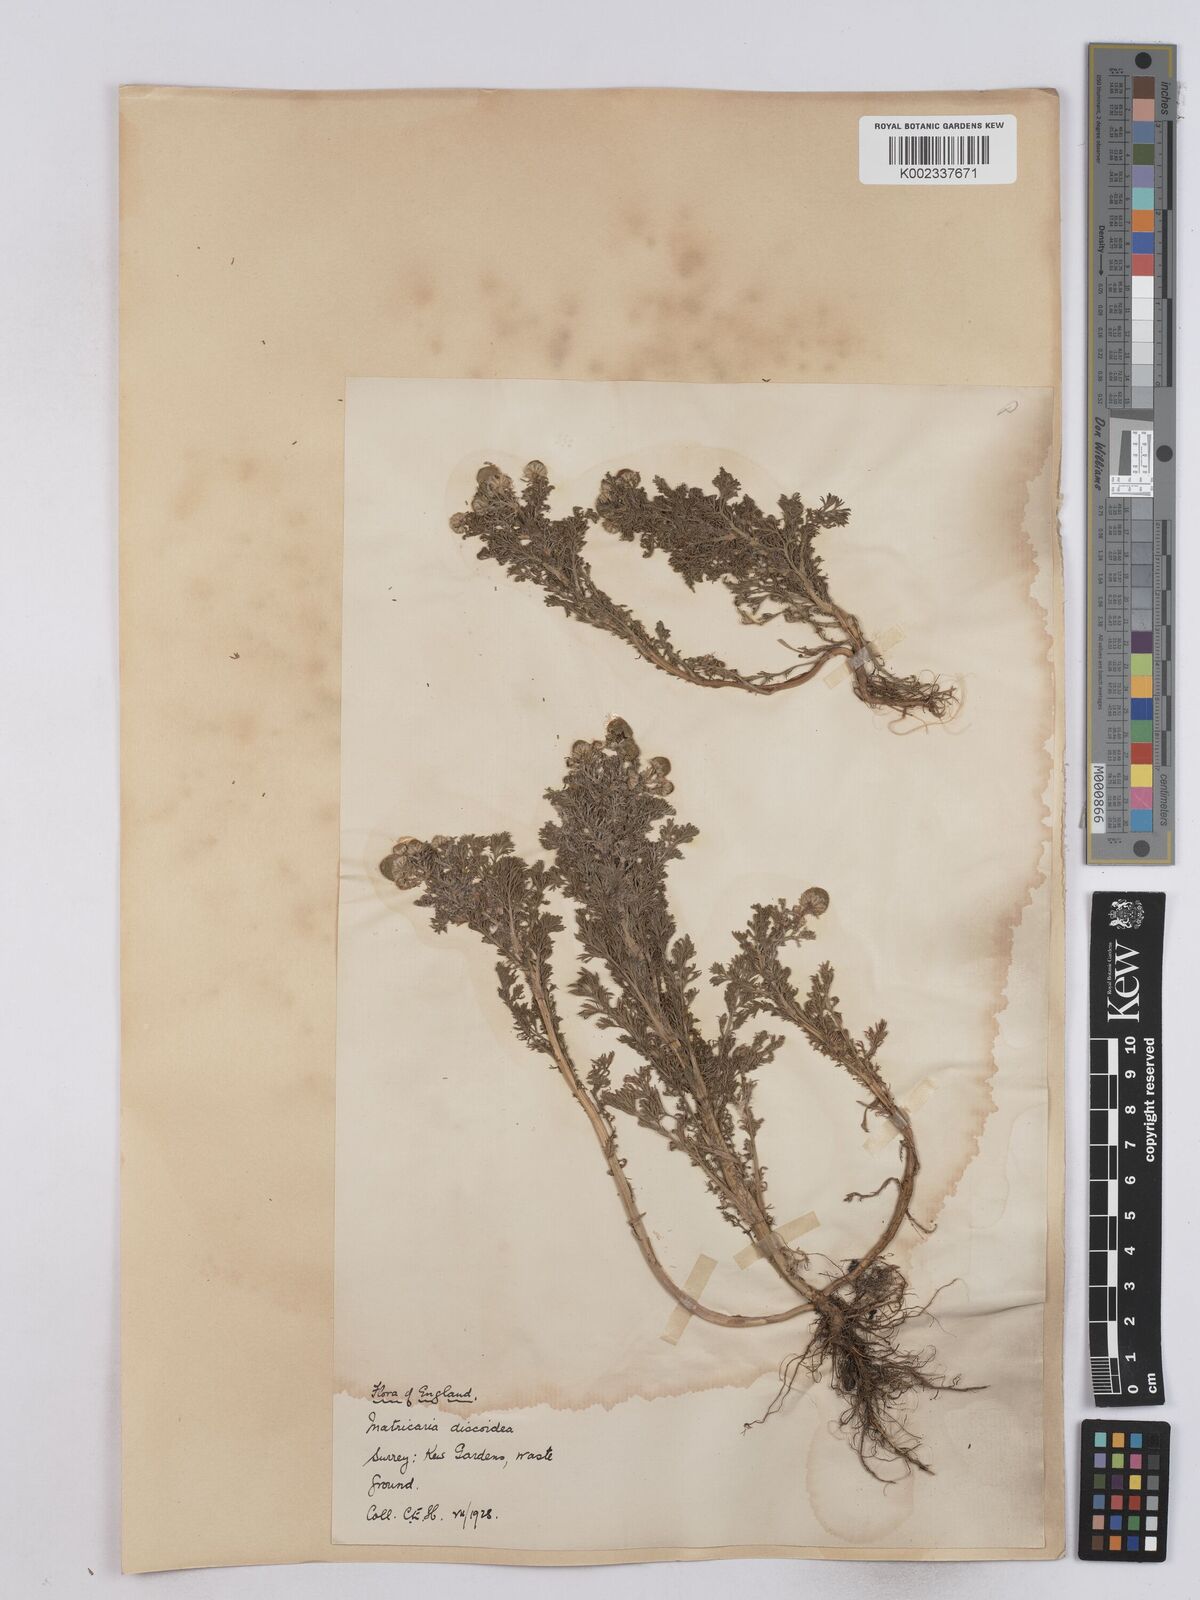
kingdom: Plantae
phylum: Tracheophyta
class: Magnoliopsida
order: Asterales
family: Asteraceae
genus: Matricaria
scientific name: Matricaria discoidea
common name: Disc mayweed
